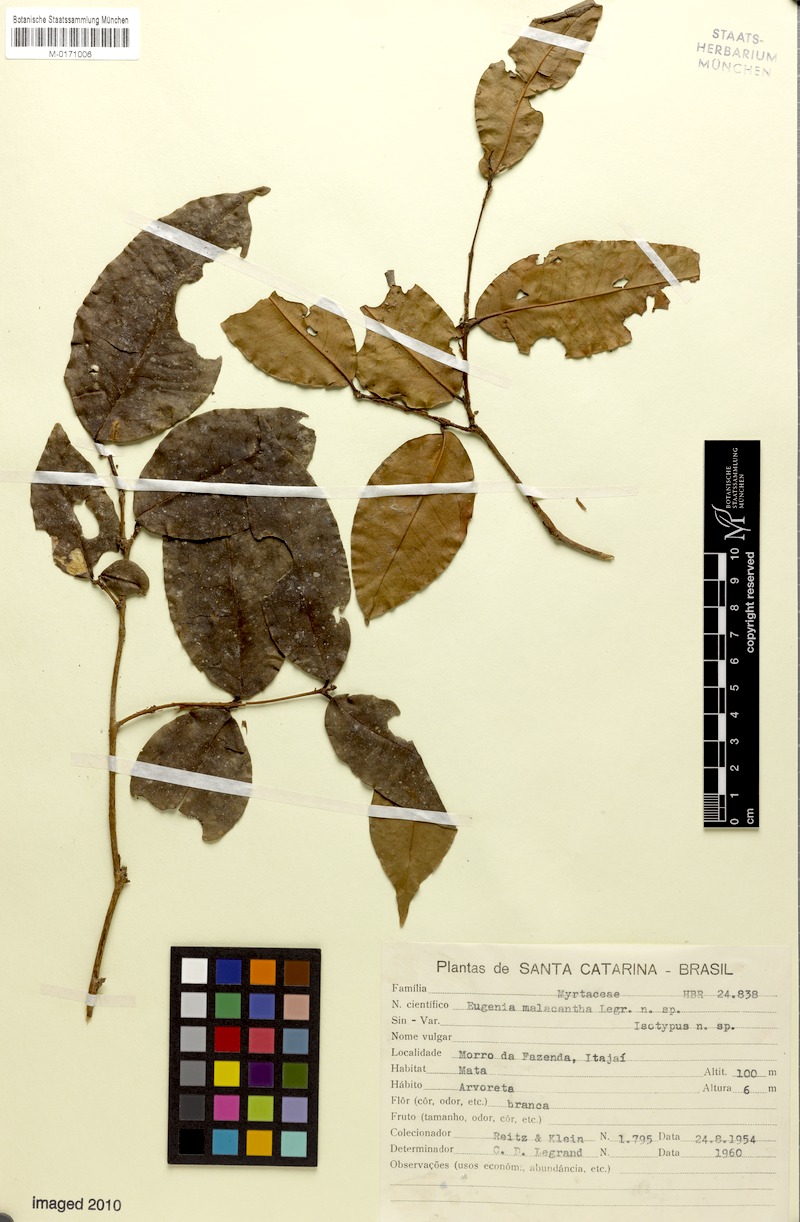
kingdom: Plantae
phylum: Tracheophyta
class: Magnoliopsida
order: Myrtales
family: Myrtaceae
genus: Eugenia
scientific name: Eugenia malacantha
